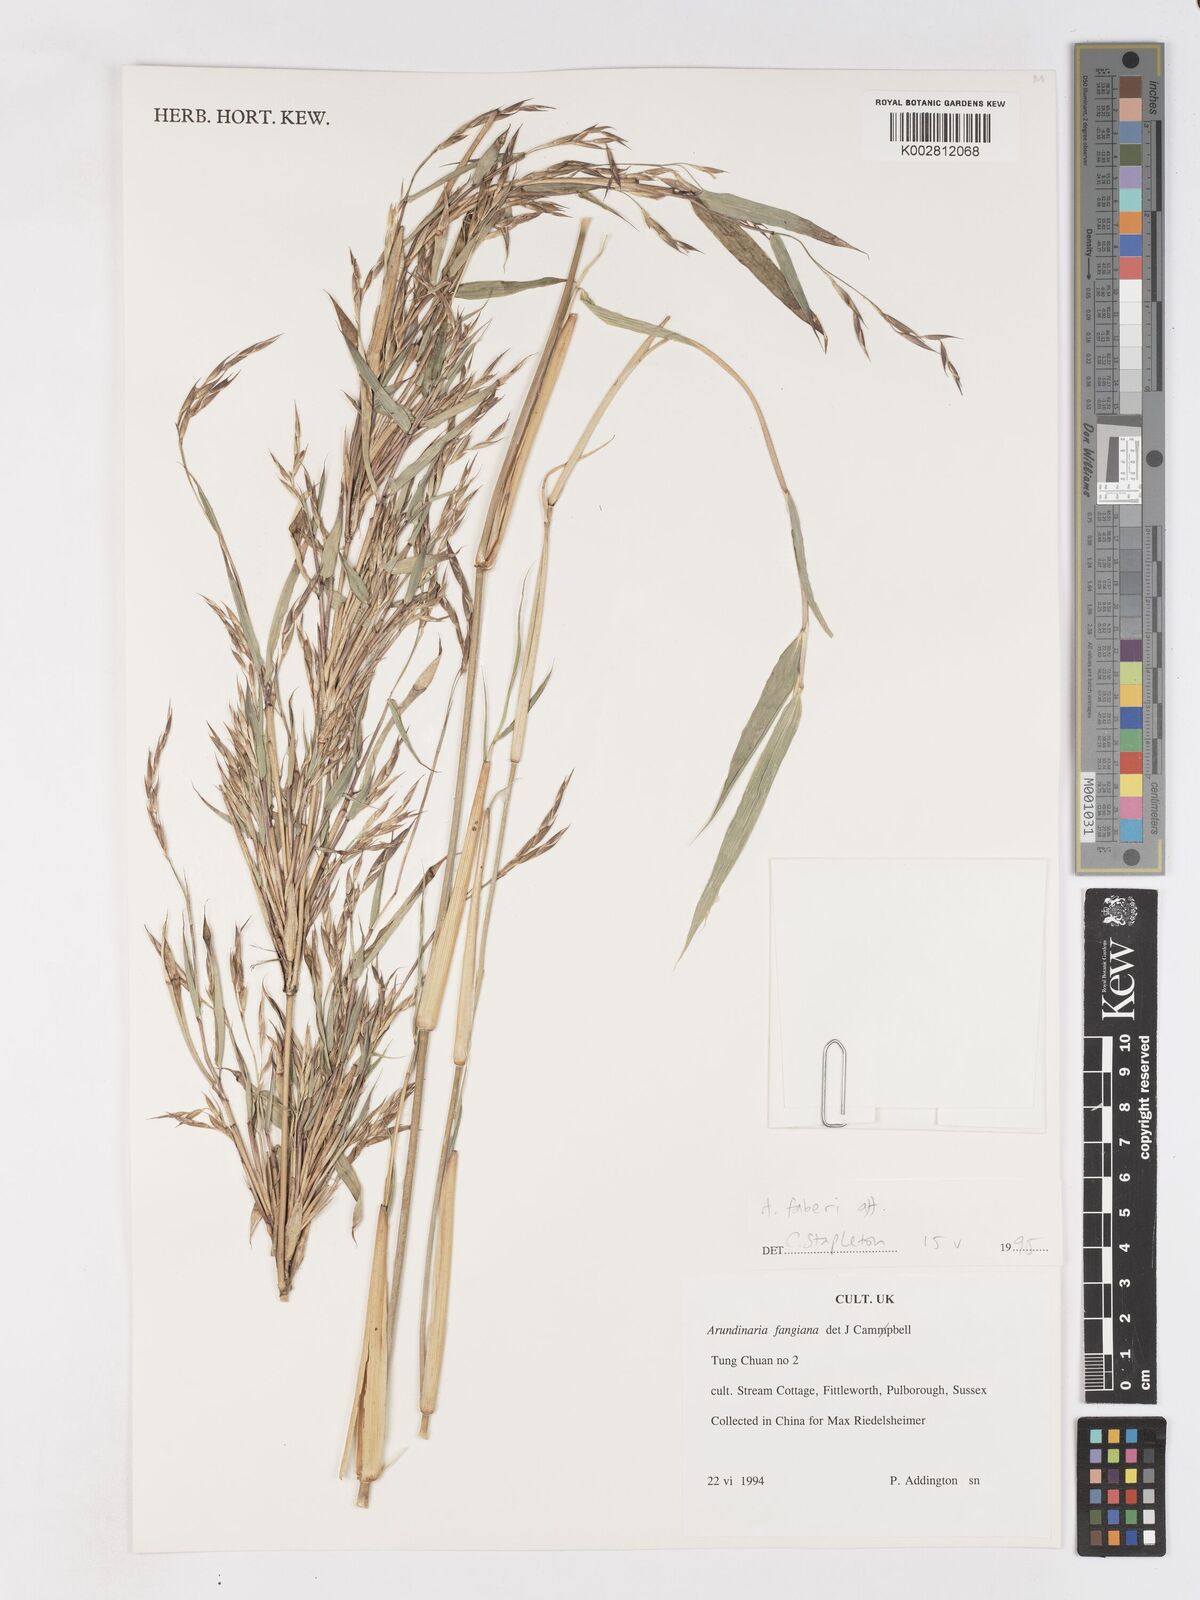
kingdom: Plantae
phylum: Tracheophyta
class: Liliopsida
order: Poales
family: Poaceae
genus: Sarocalamus
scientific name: Sarocalamus faberi
